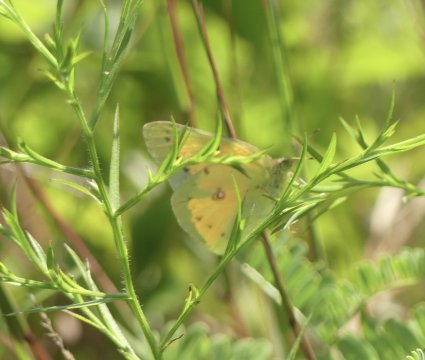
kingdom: Animalia
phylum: Arthropoda
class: Insecta
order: Lepidoptera
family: Pieridae
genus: Colias
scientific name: Colias eurytheme
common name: Orange Sulphur
